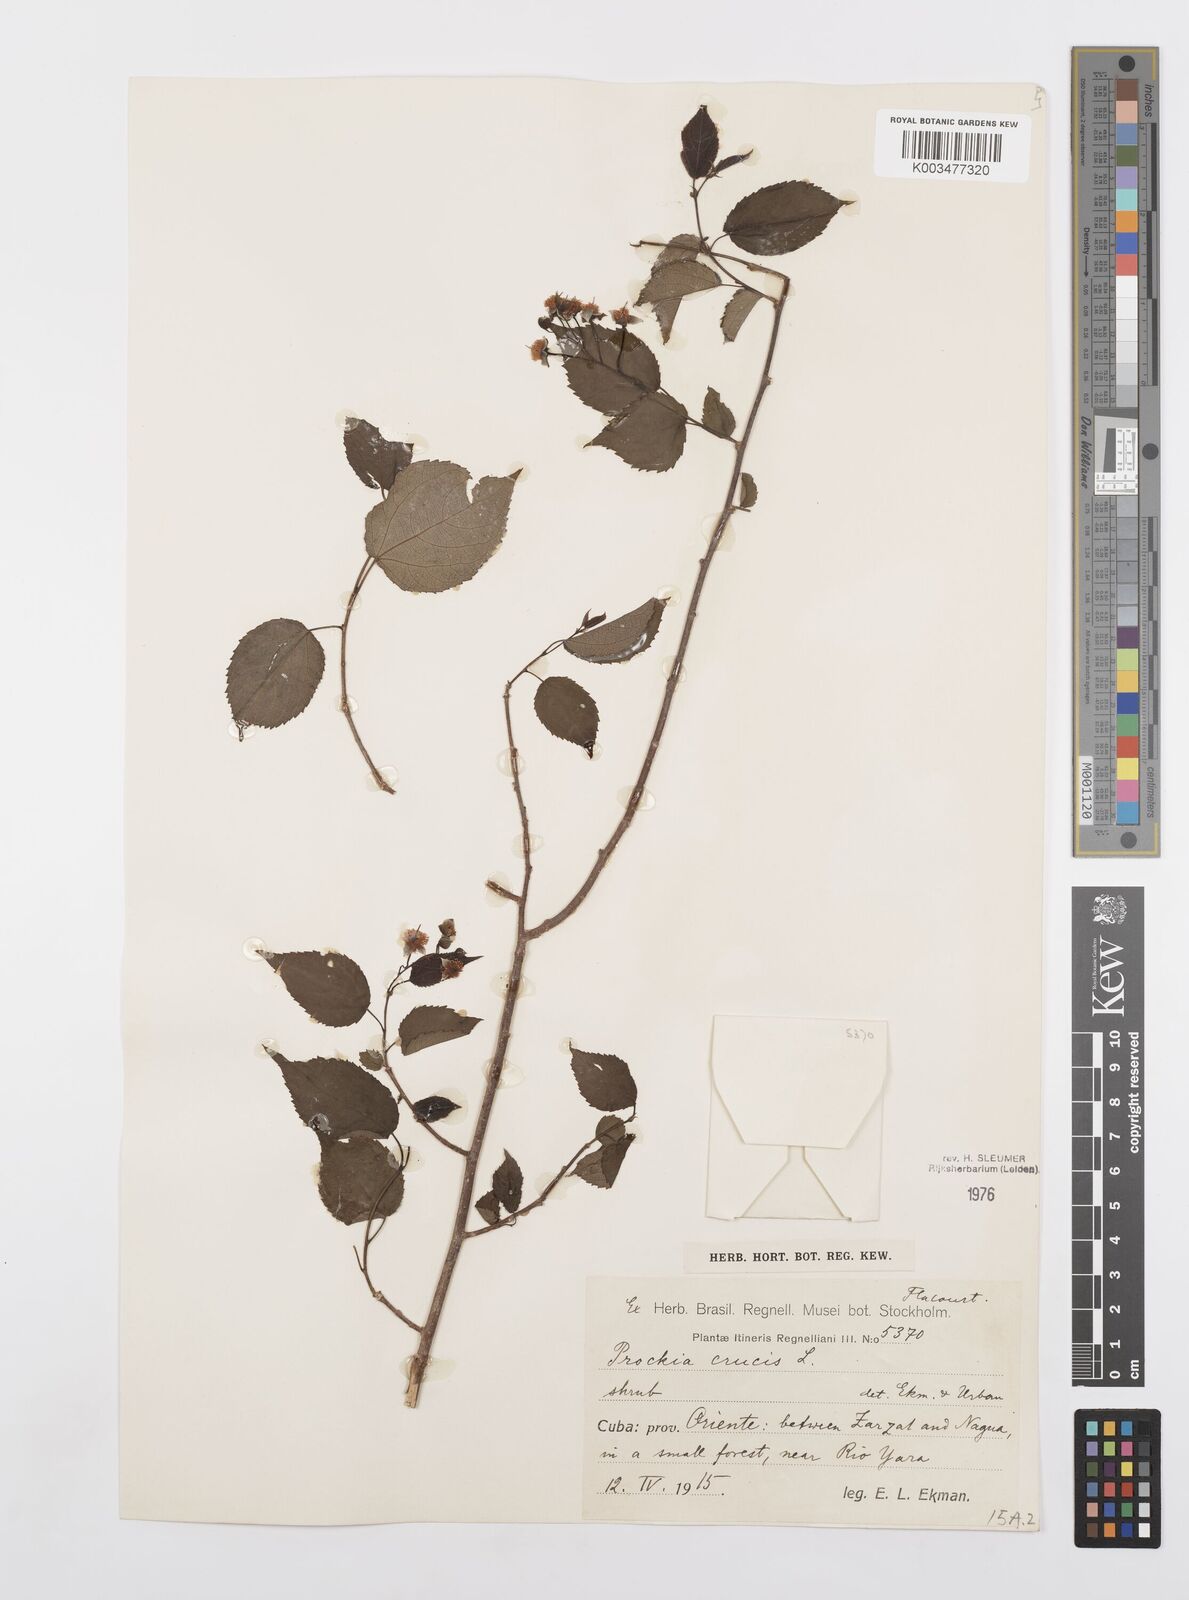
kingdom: Plantae
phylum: Tracheophyta
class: Magnoliopsida
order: Malpighiales
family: Salicaceae
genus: Prockia
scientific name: Prockia crucis
